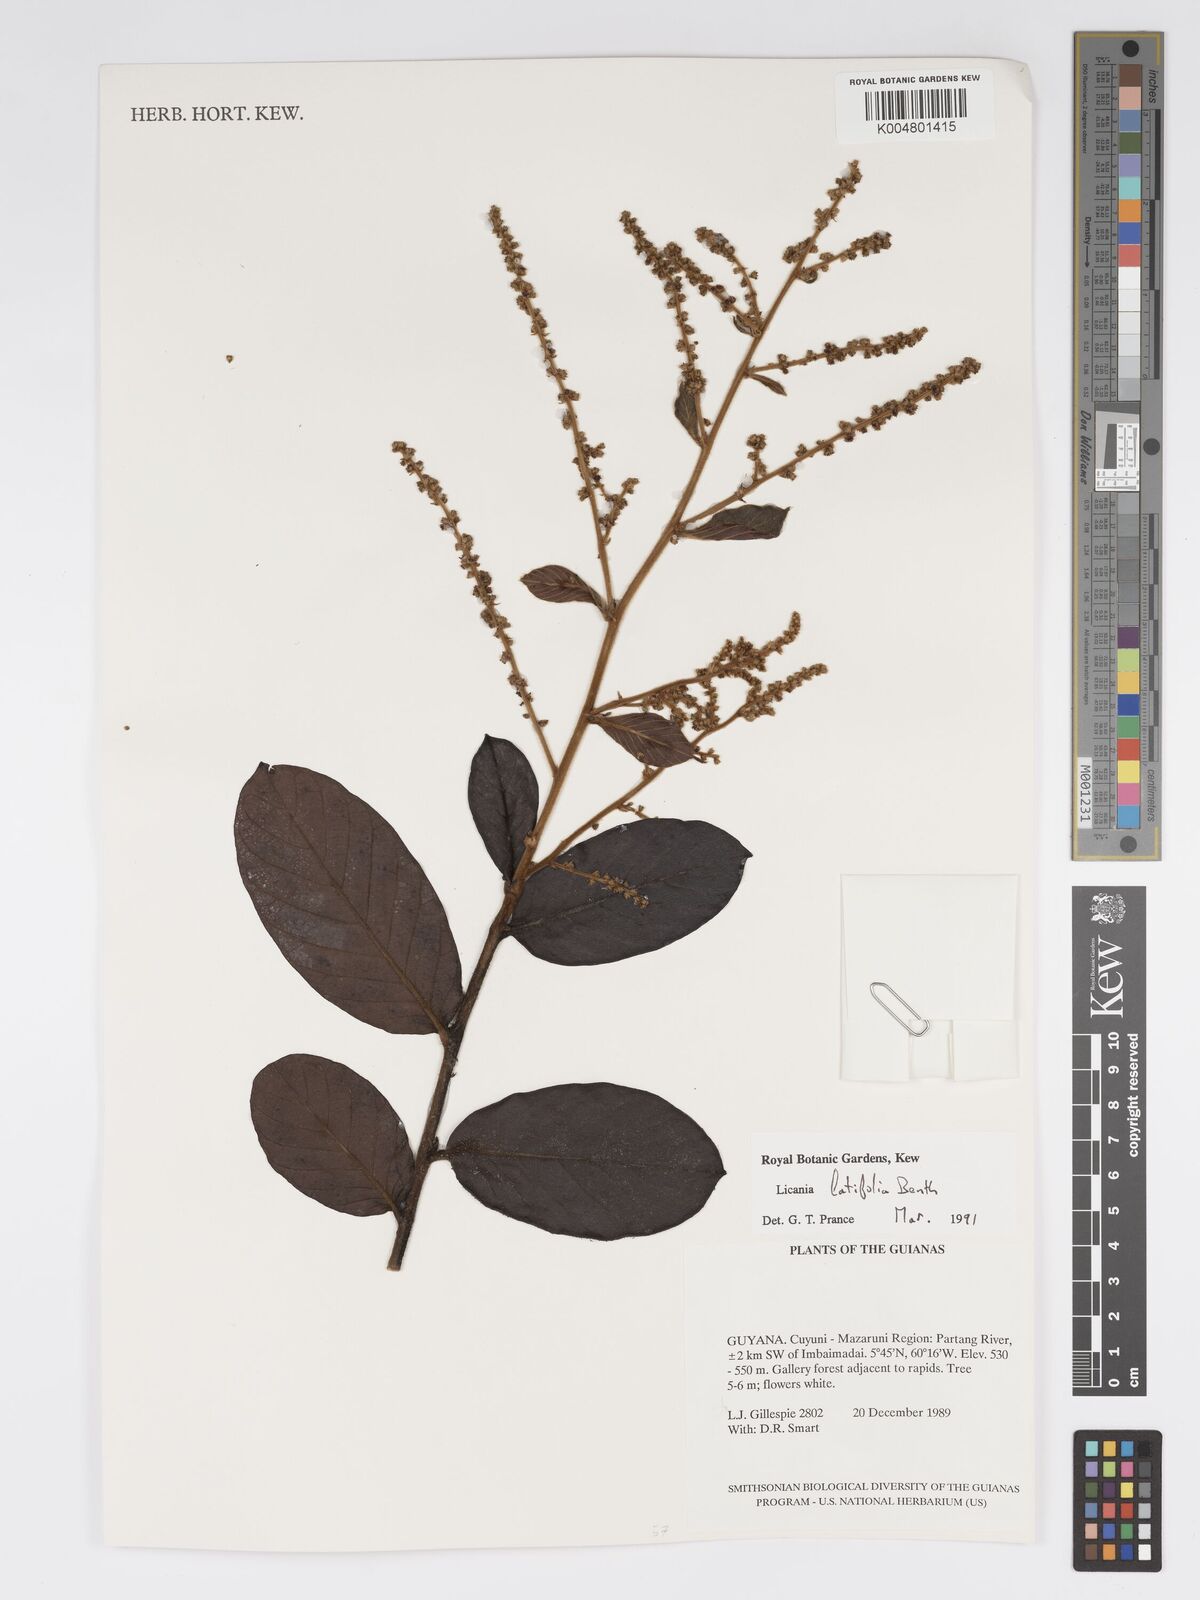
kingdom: Plantae
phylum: Tracheophyta
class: Magnoliopsida
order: Malpighiales
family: Chrysobalanaceae
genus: Hymenopus
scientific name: Hymenopus latifolius
